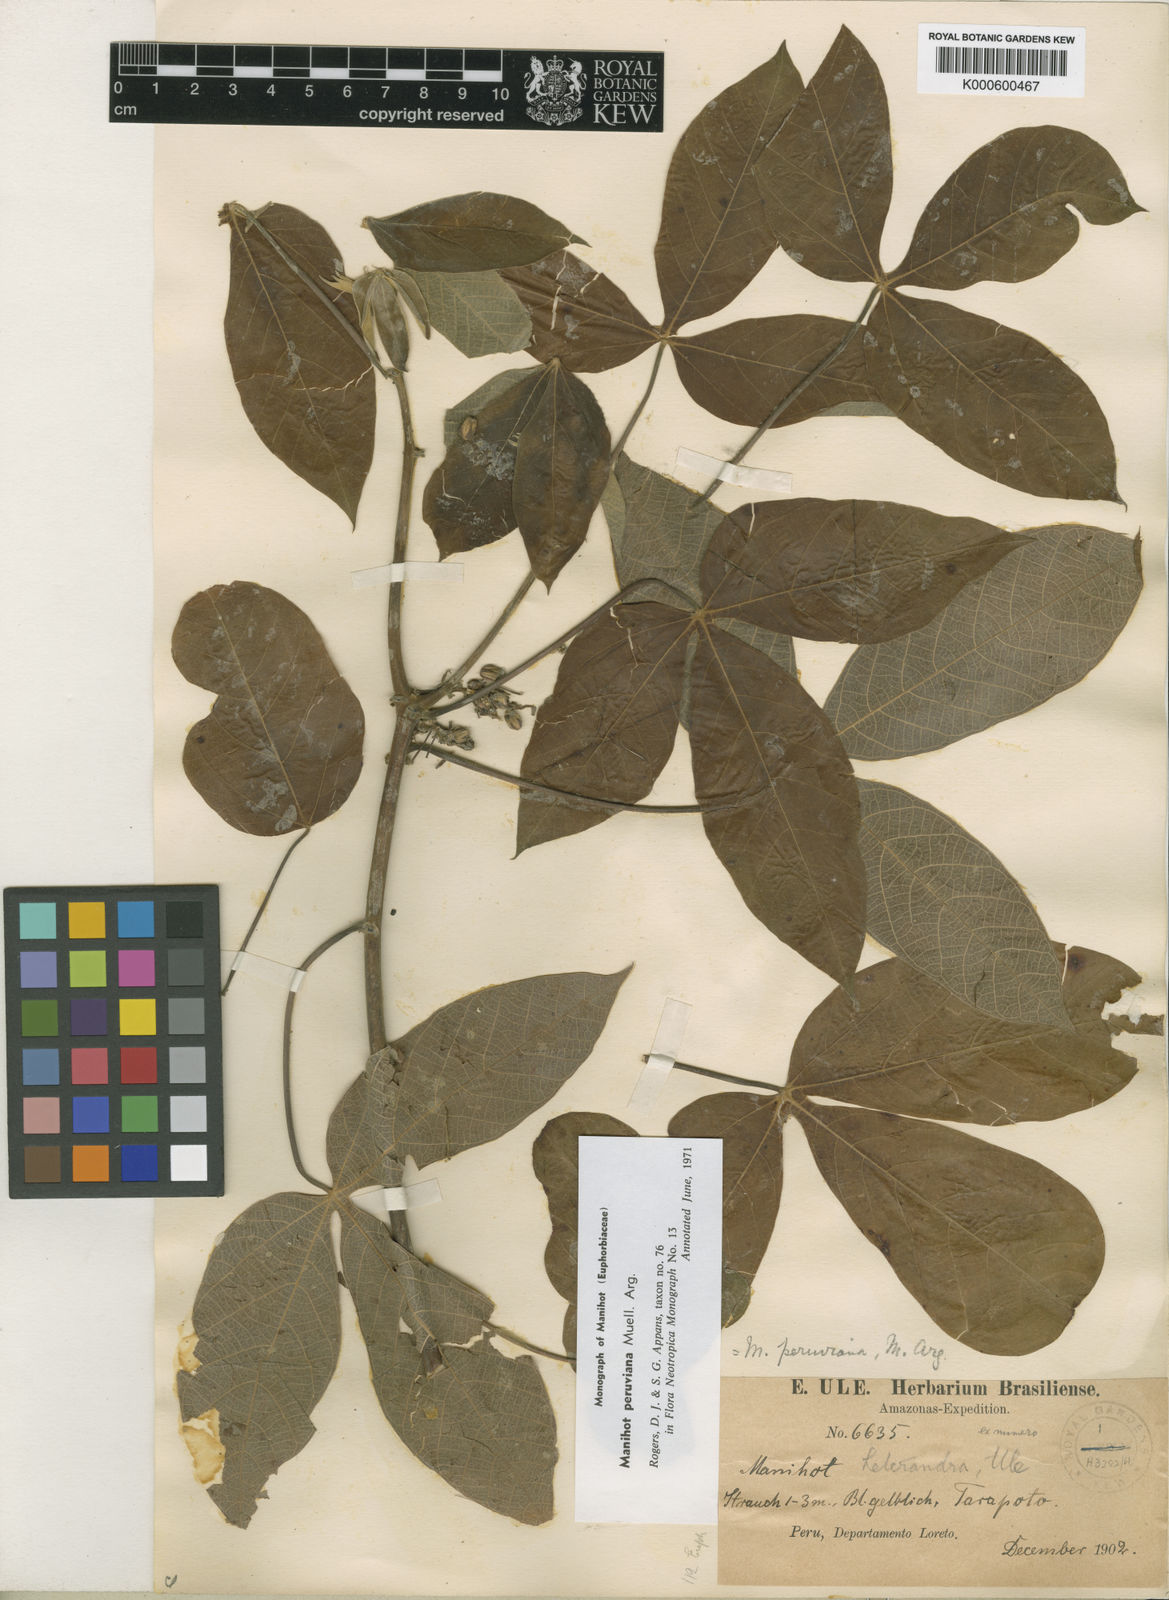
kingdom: Plantae
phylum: Tracheophyta
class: Magnoliopsida
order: Malpighiales
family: Euphorbiaceae
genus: Manihot
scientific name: Manihot
